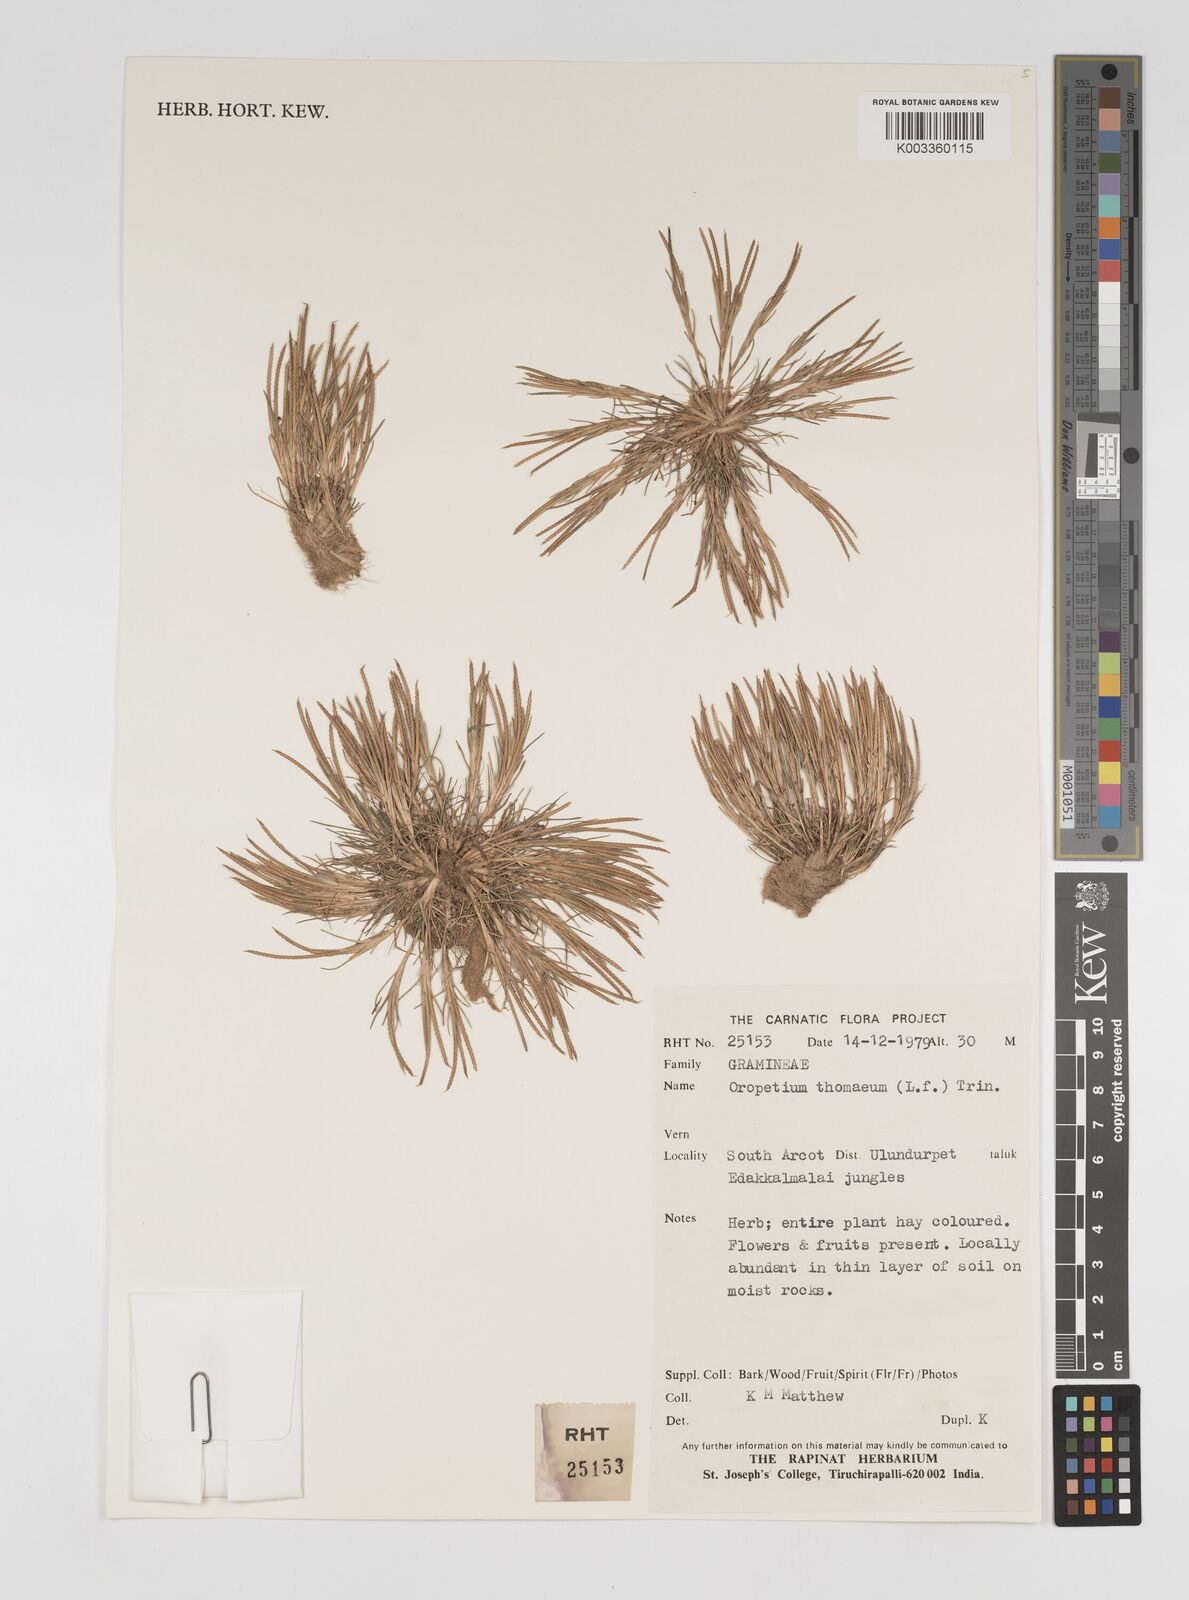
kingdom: Plantae
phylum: Tracheophyta
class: Liliopsida
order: Poales
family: Poaceae
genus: Oropetium
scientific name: Oropetium thomaeum
